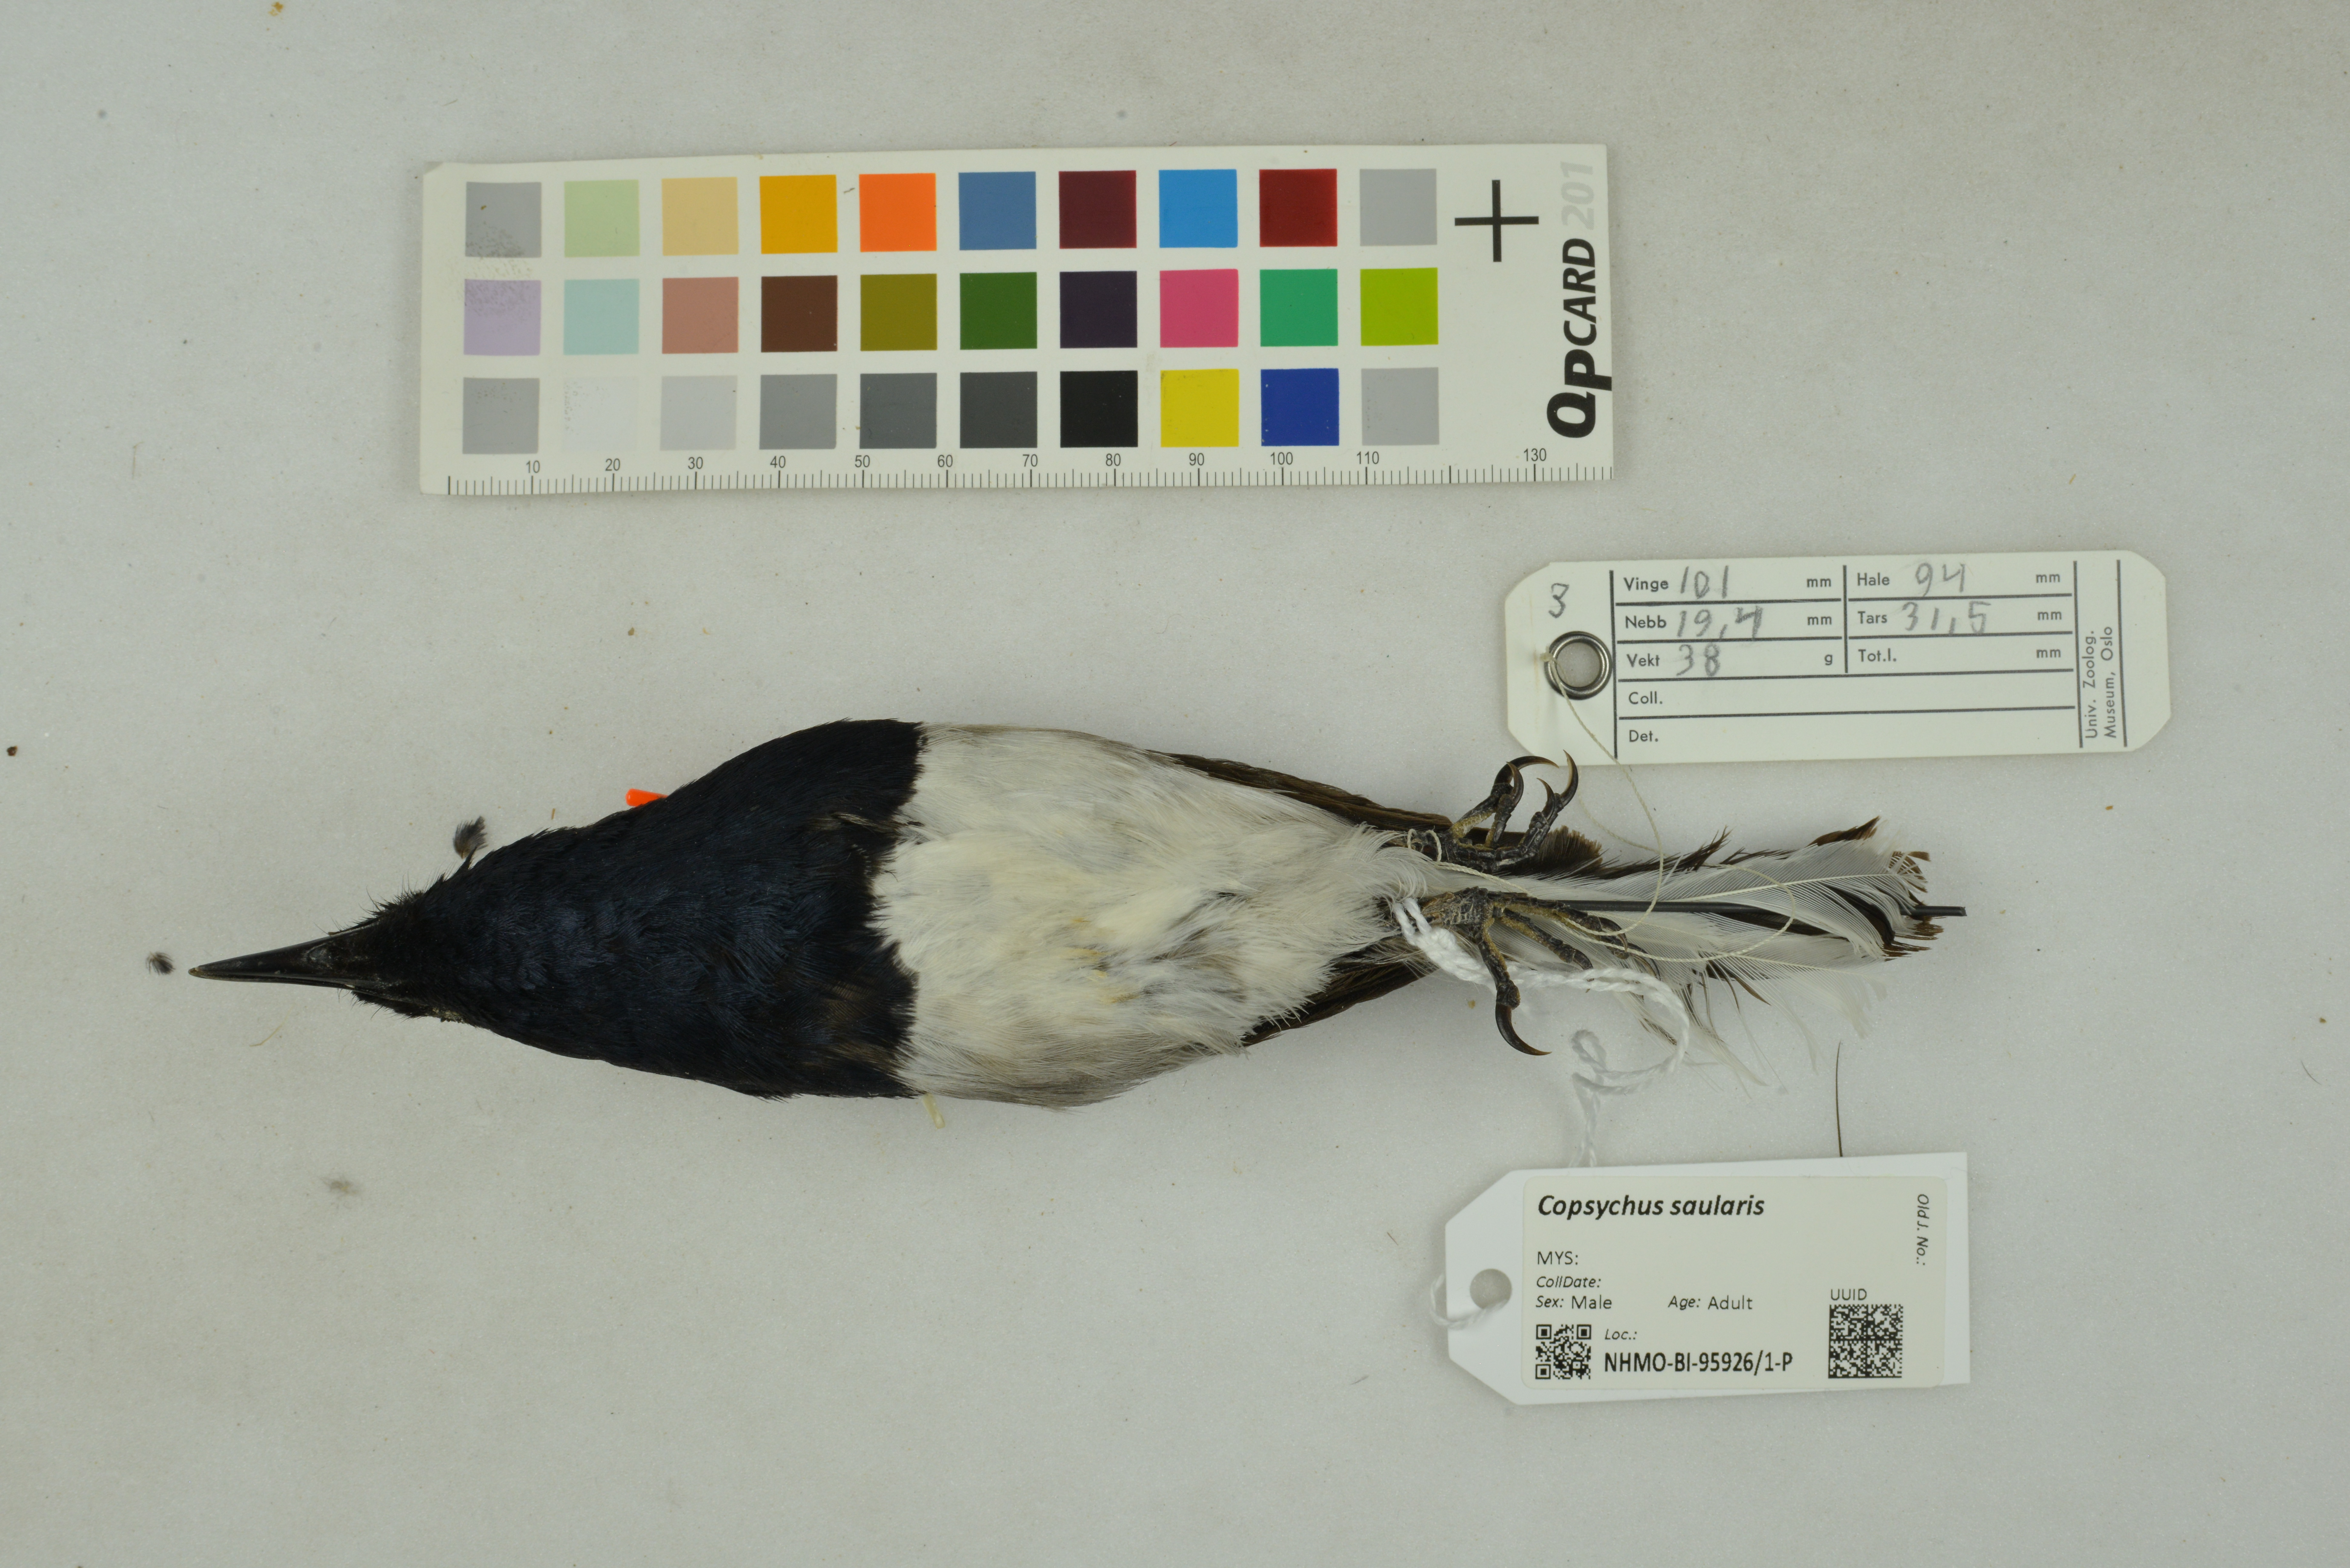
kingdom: Animalia
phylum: Chordata
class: Aves
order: Passeriformes
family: Muscicapidae
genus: Copsychus
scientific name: Copsychus saularis
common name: Oriental magpie-robin
